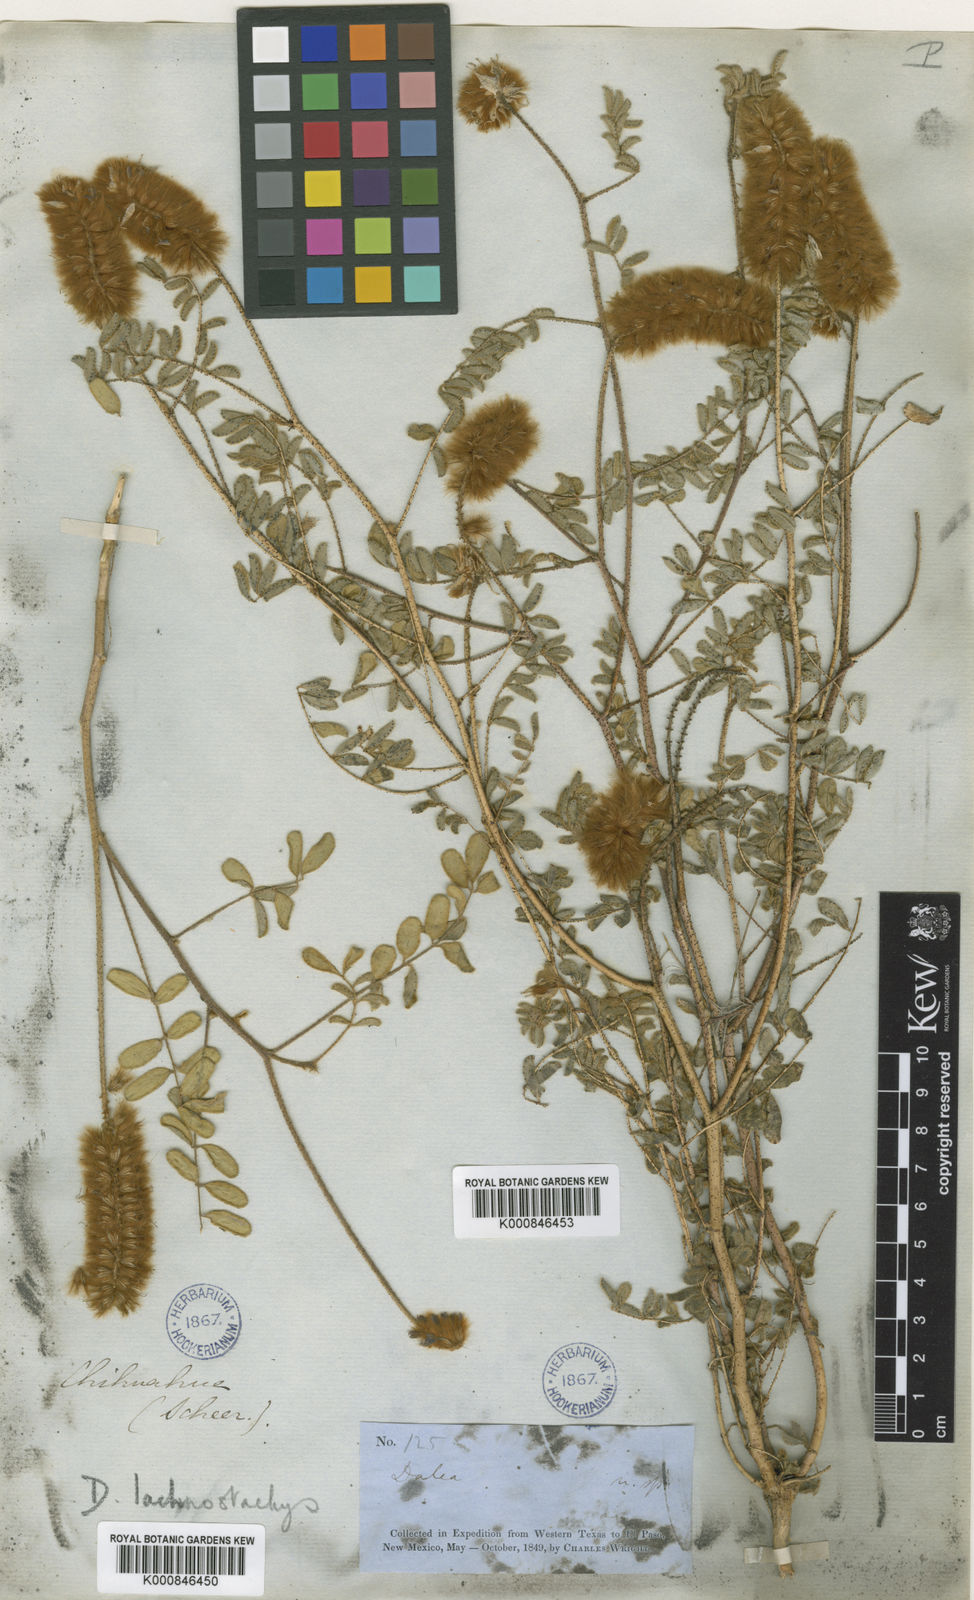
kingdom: Plantae
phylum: Tracheophyta
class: Magnoliopsida
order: Fabales
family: Fabaceae
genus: Dalea
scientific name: Dalea lachnostachys
